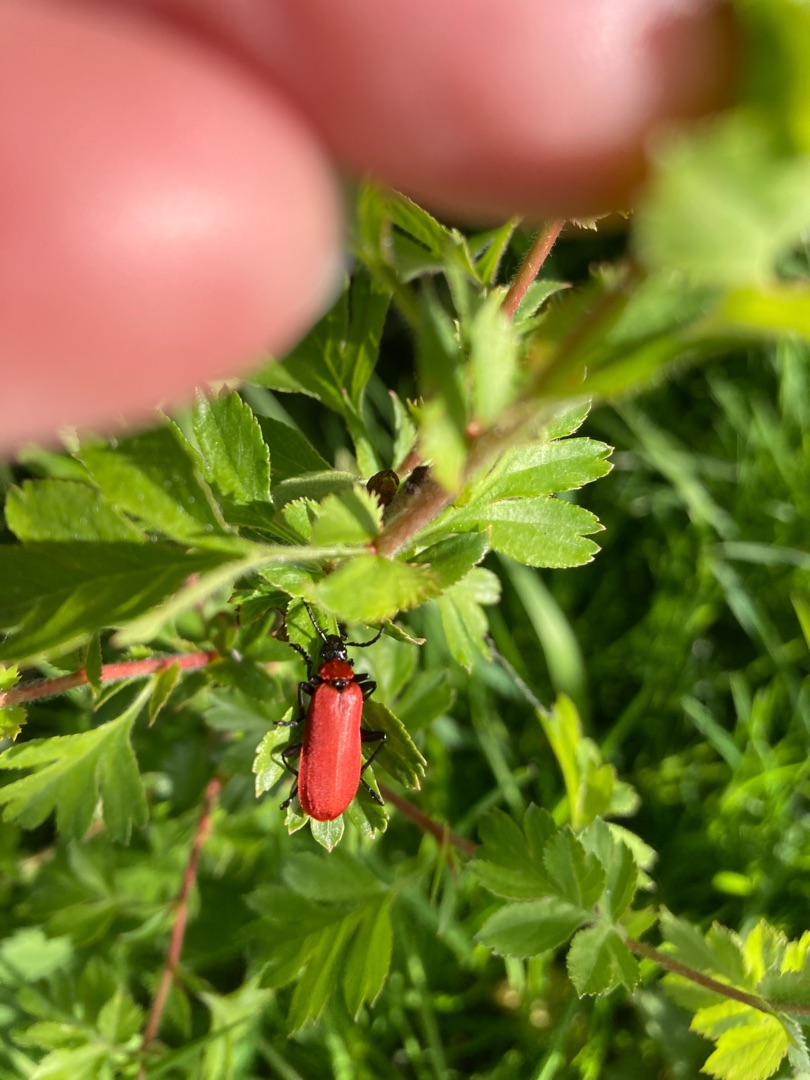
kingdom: Animalia
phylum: Arthropoda
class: Insecta
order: Coleoptera
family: Pyrochroidae
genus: Pyrochroa
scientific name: Pyrochroa coccinea
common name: Sorthovedet kardinalbille
